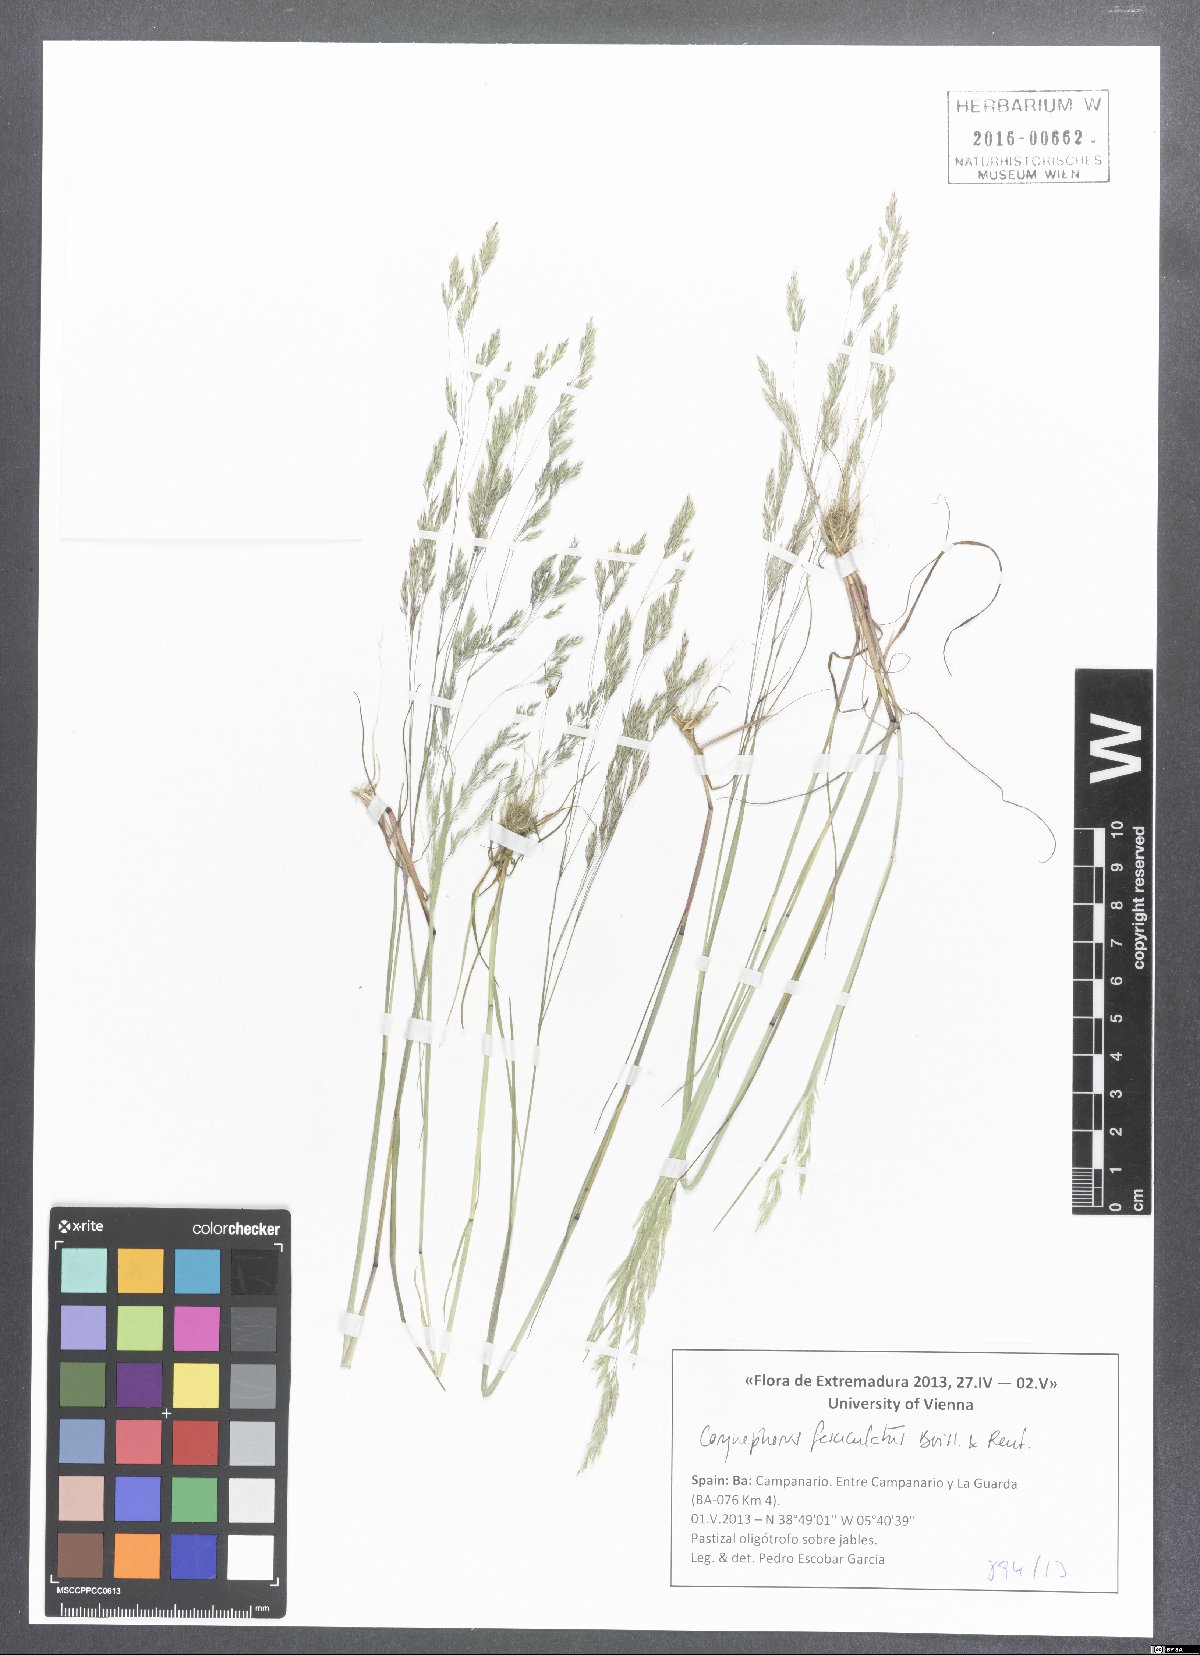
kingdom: Plantae
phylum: Tracheophyta
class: Liliopsida
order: Poales
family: Poaceae
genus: Corynephorus
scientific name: Corynephorus fasciculatus
